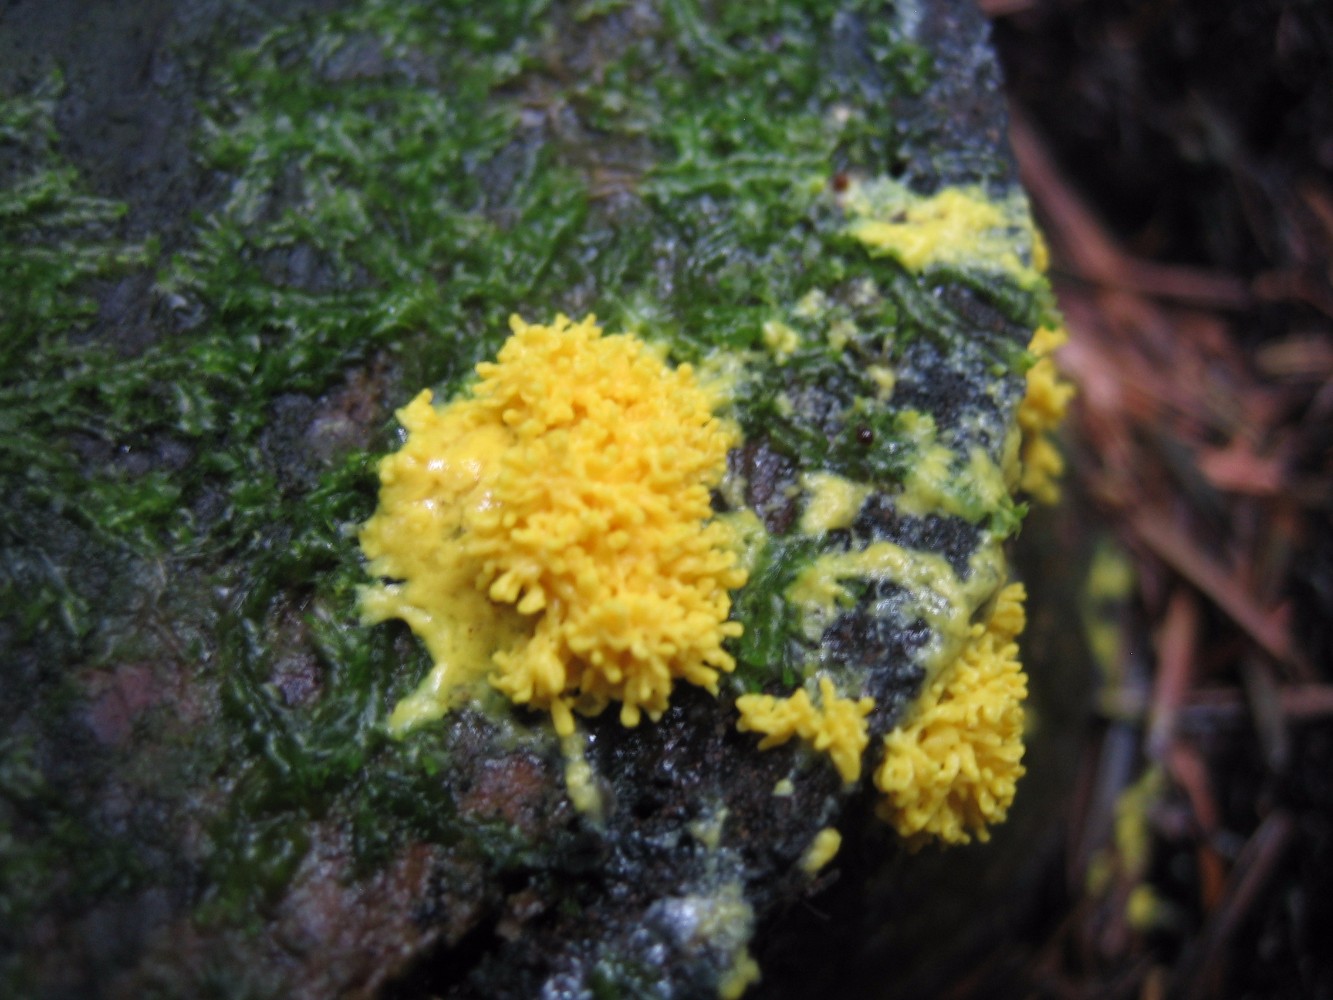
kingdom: Protozoa
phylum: Mycetozoa
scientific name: Mycetozoa
